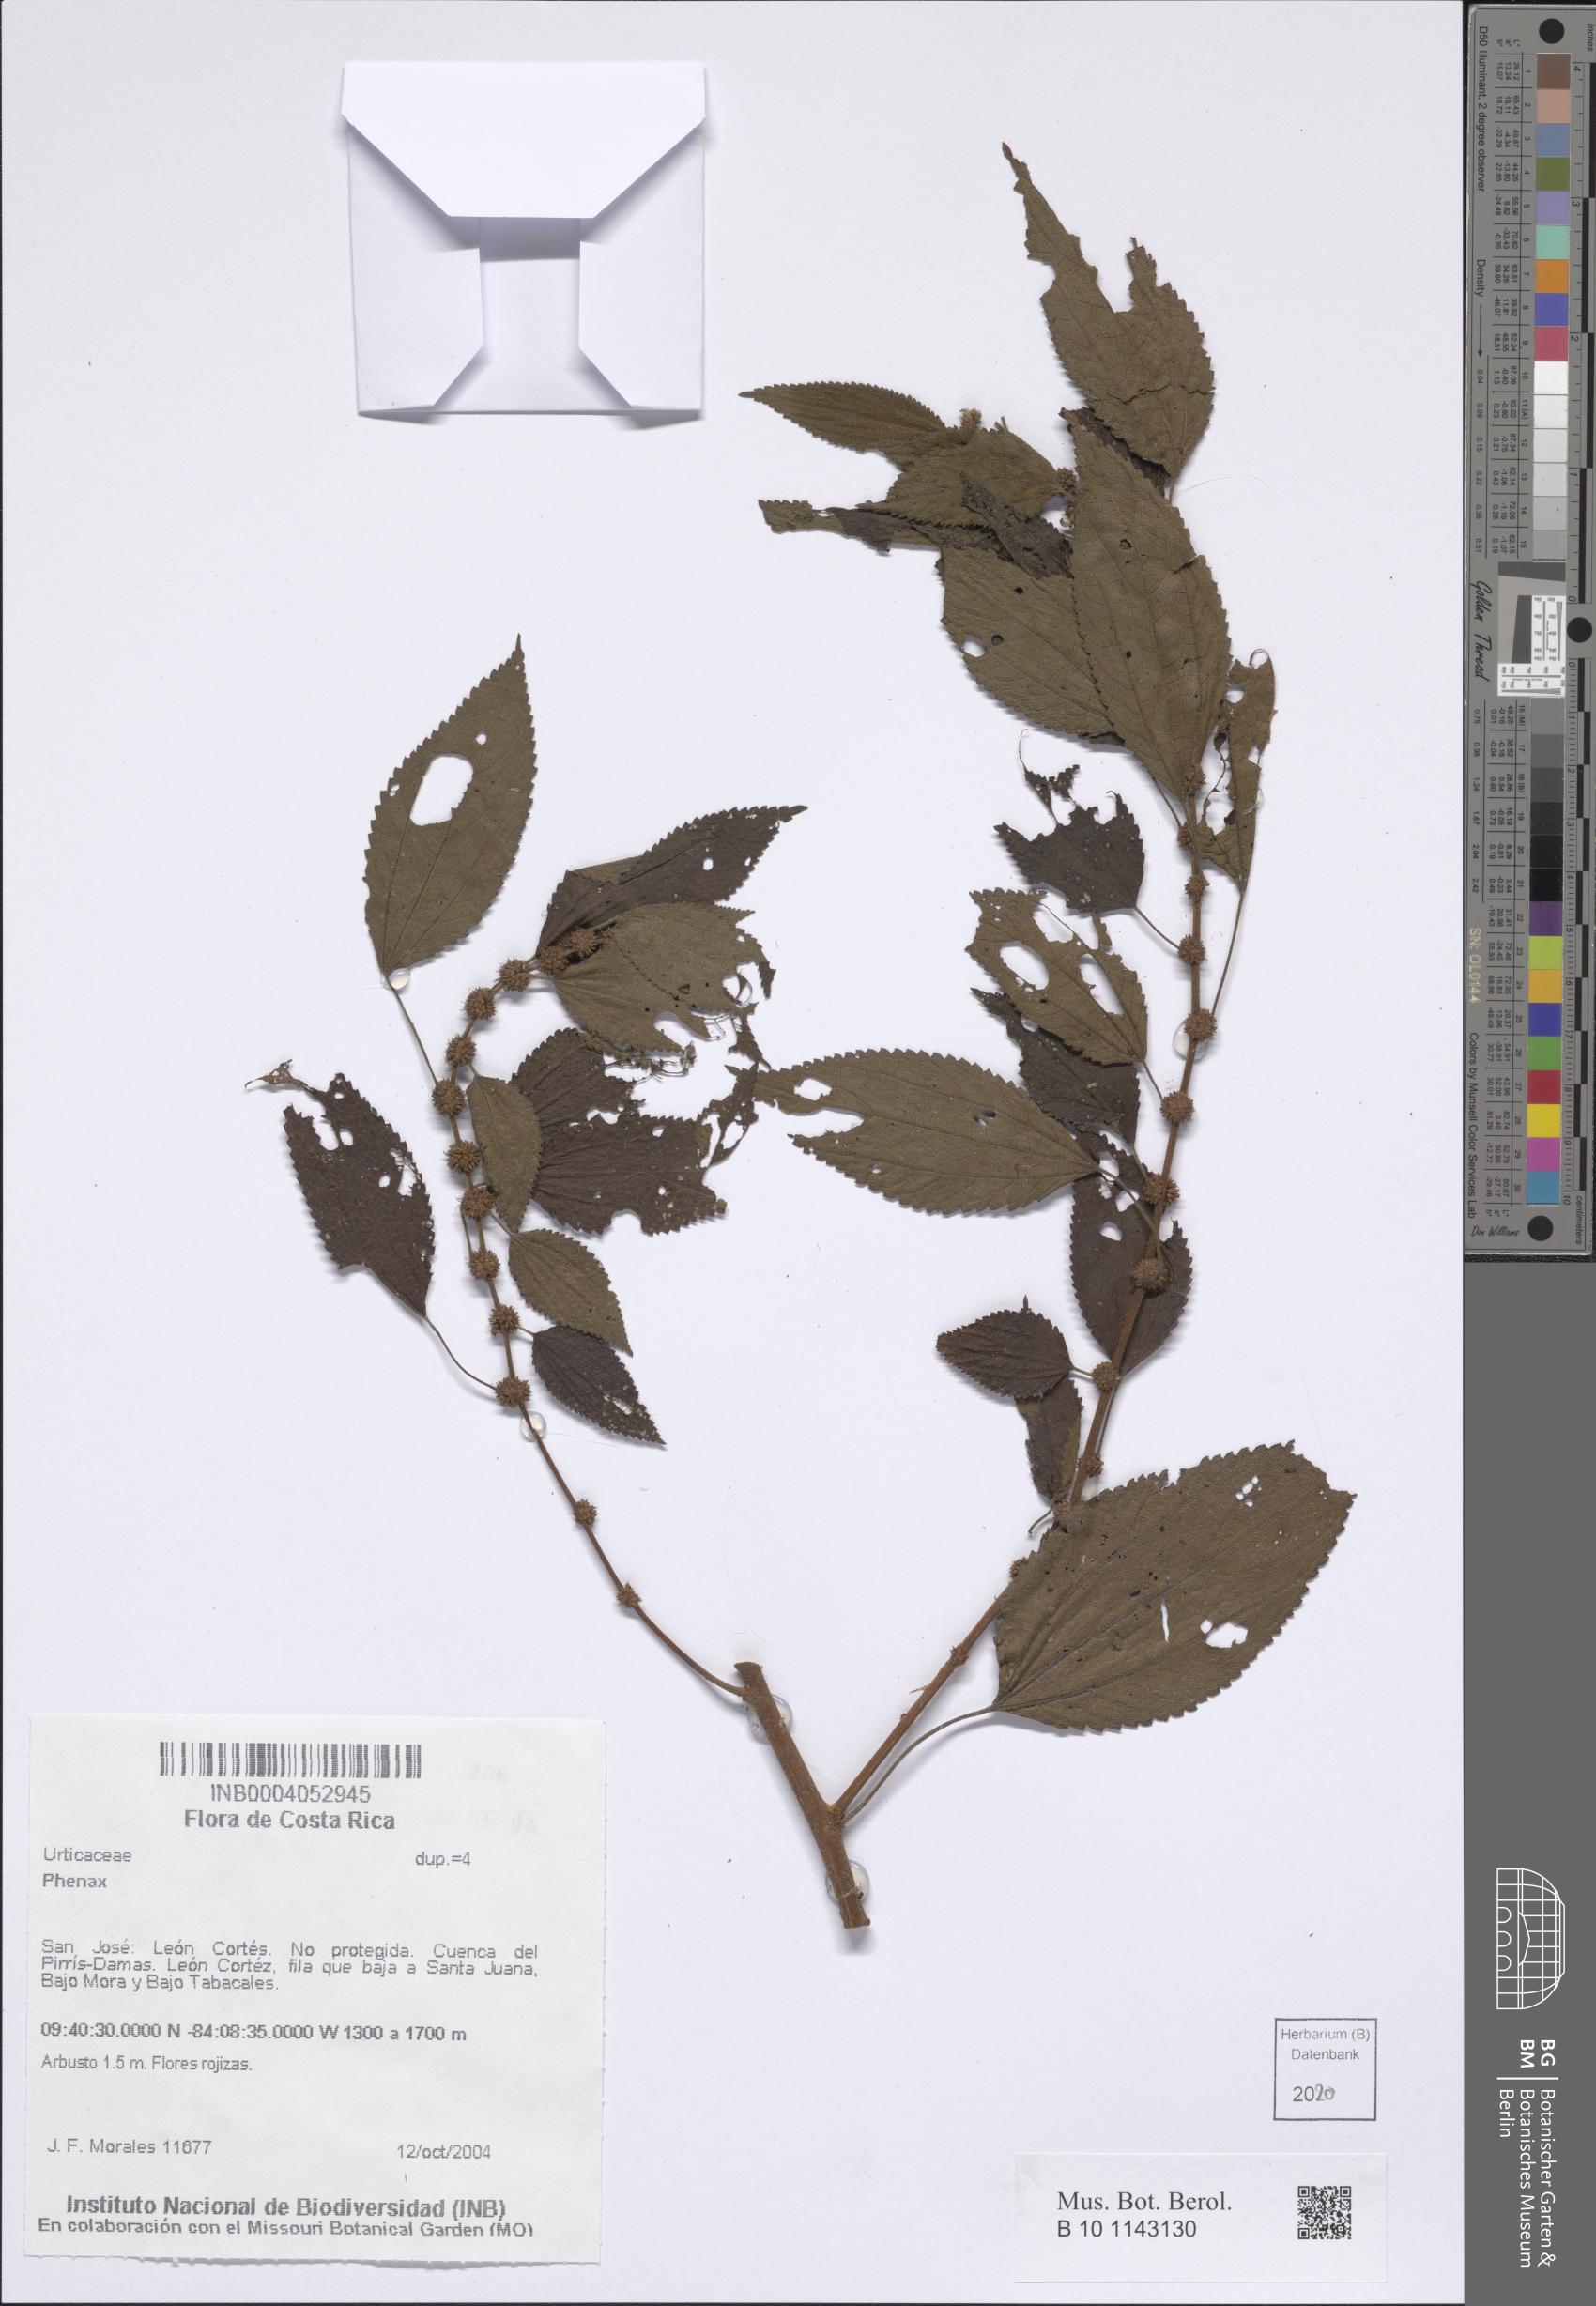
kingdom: Plantae
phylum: Tracheophyta
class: Magnoliopsida
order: Rosales
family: Urticaceae
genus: Phenax
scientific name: Phenax
